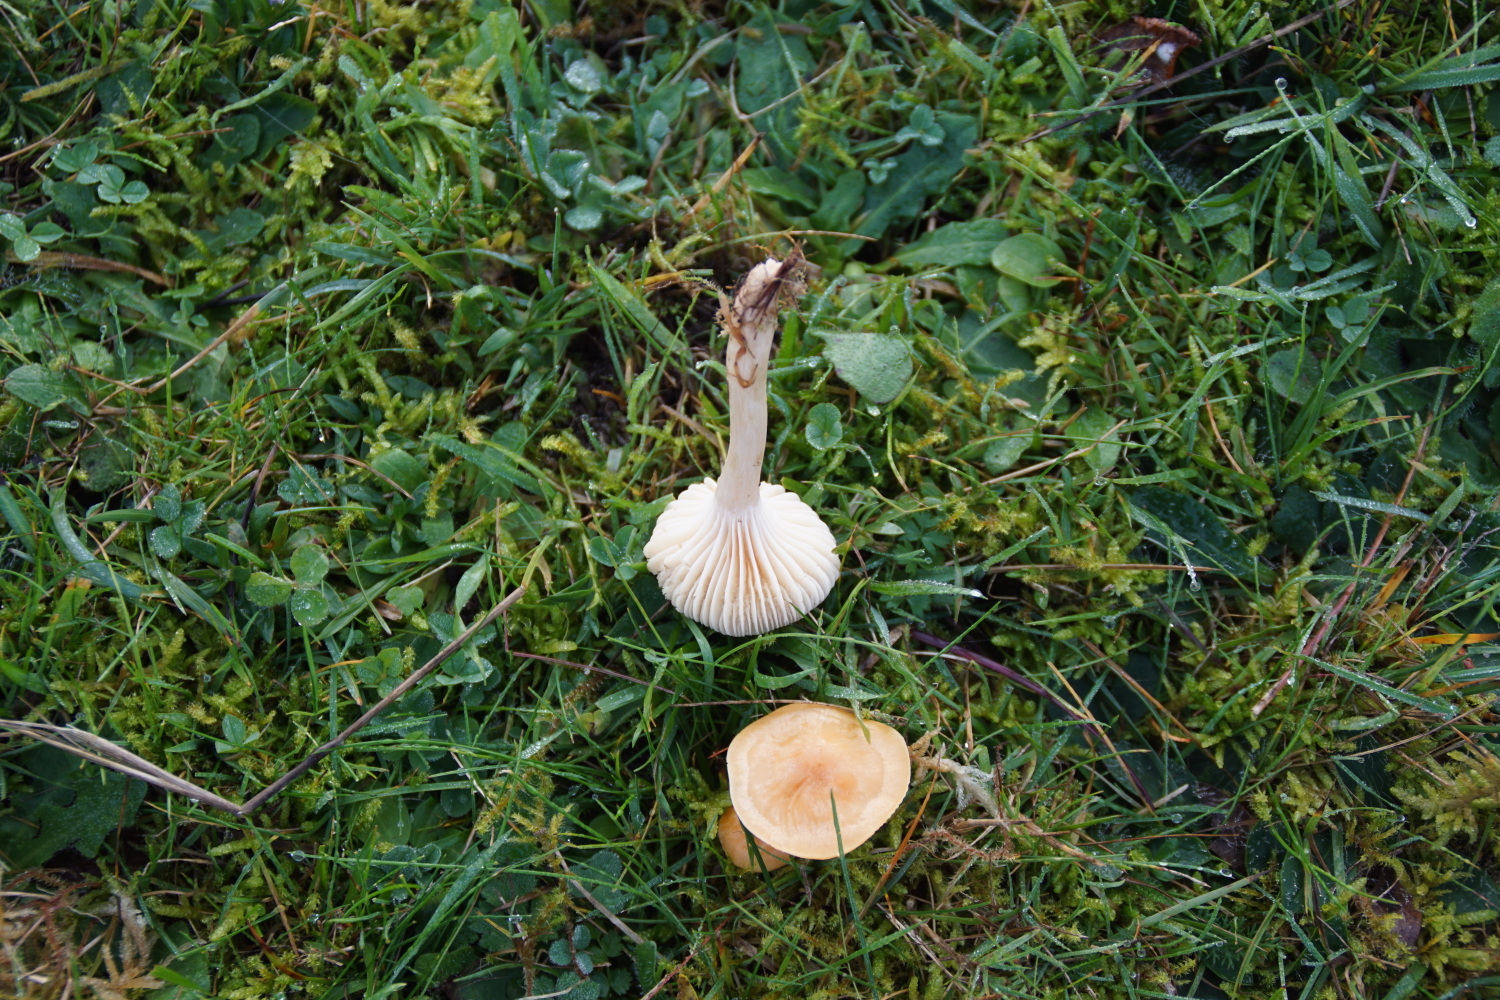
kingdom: Fungi
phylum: Basidiomycota
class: Agaricomycetes
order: Agaricales
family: Hygrophoraceae
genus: Cuphophyllus
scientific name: Cuphophyllus pratensis
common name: eng-vokshat
